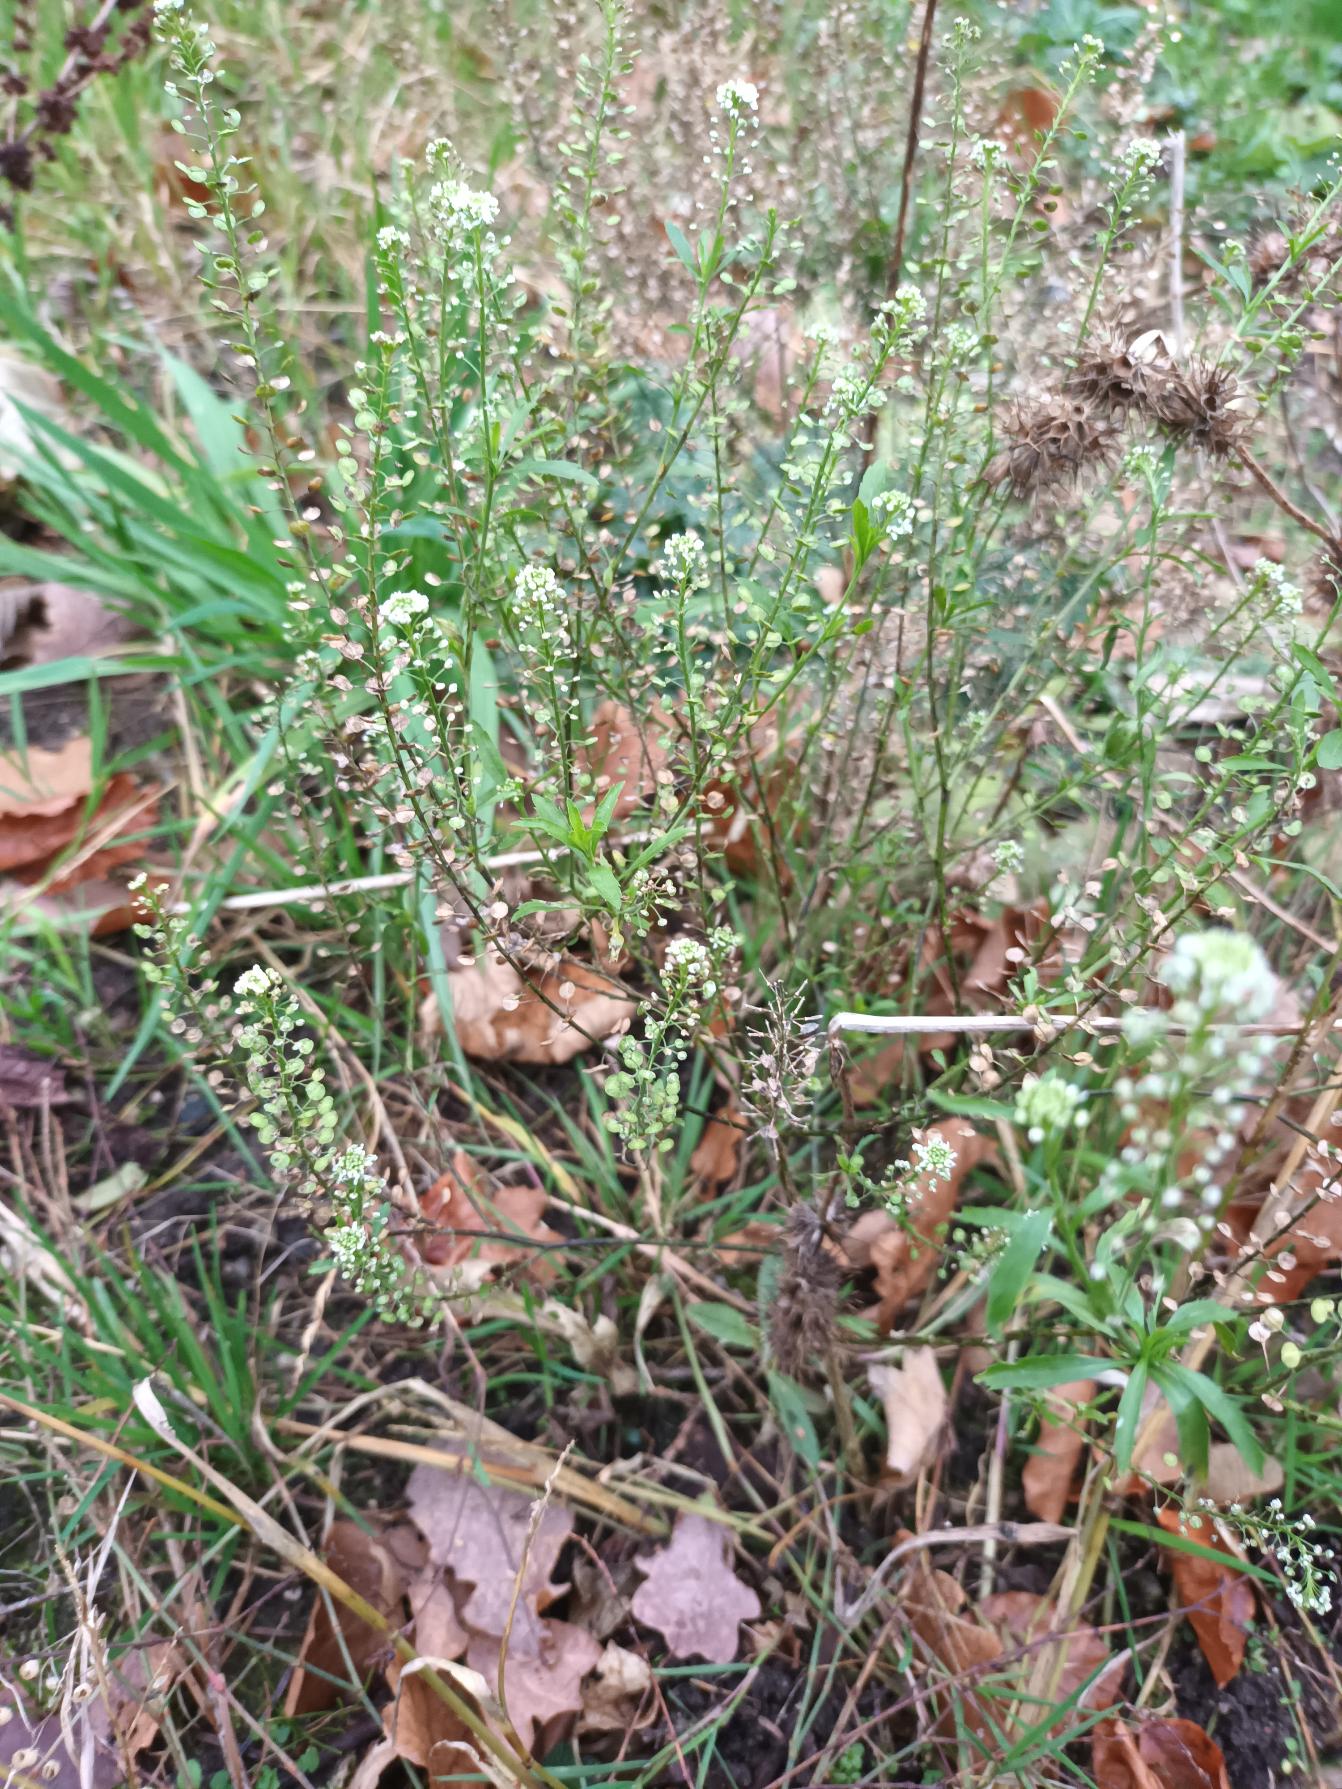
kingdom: Plantae
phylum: Tracheophyta
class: Magnoliopsida
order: Brassicales
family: Brassicaceae
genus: Lepidium
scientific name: Lepidium densiflorum
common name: Vingefrøet karse
